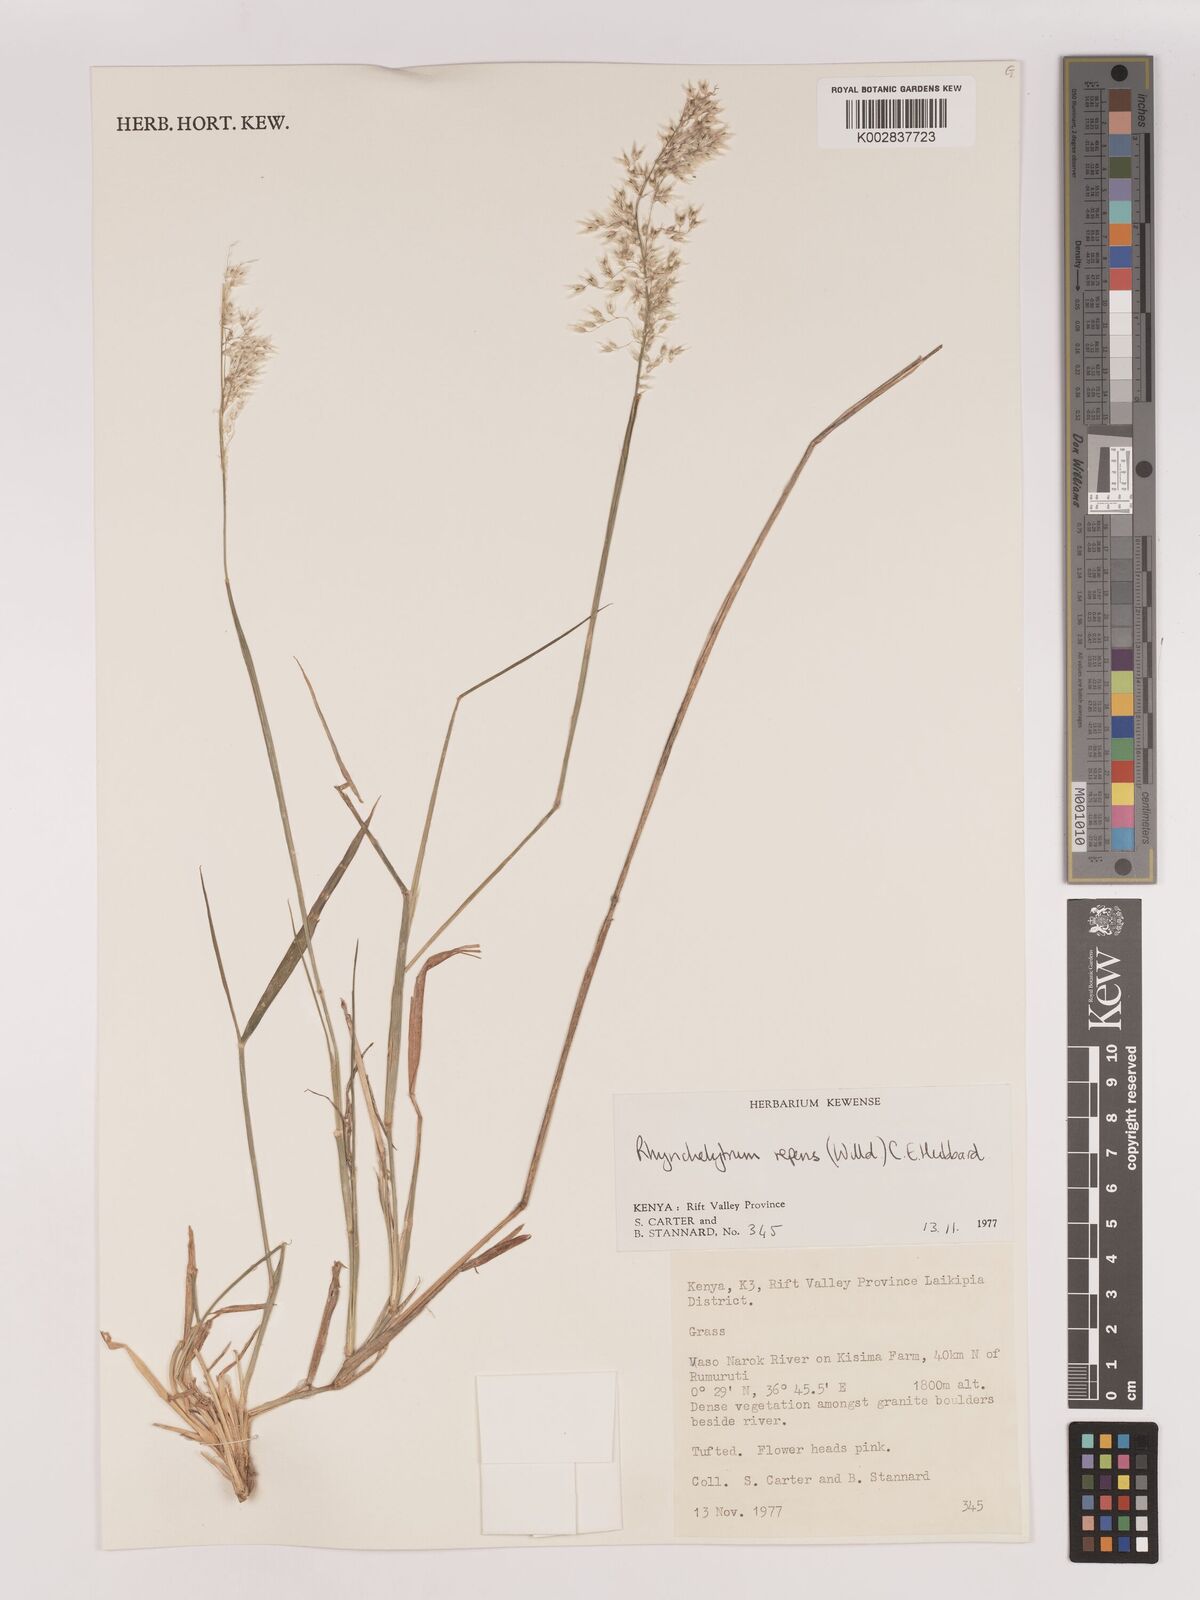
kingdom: Plantae
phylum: Tracheophyta
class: Liliopsida
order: Poales
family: Poaceae
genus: Melinis
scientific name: Melinis repens
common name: Rose natal grass
